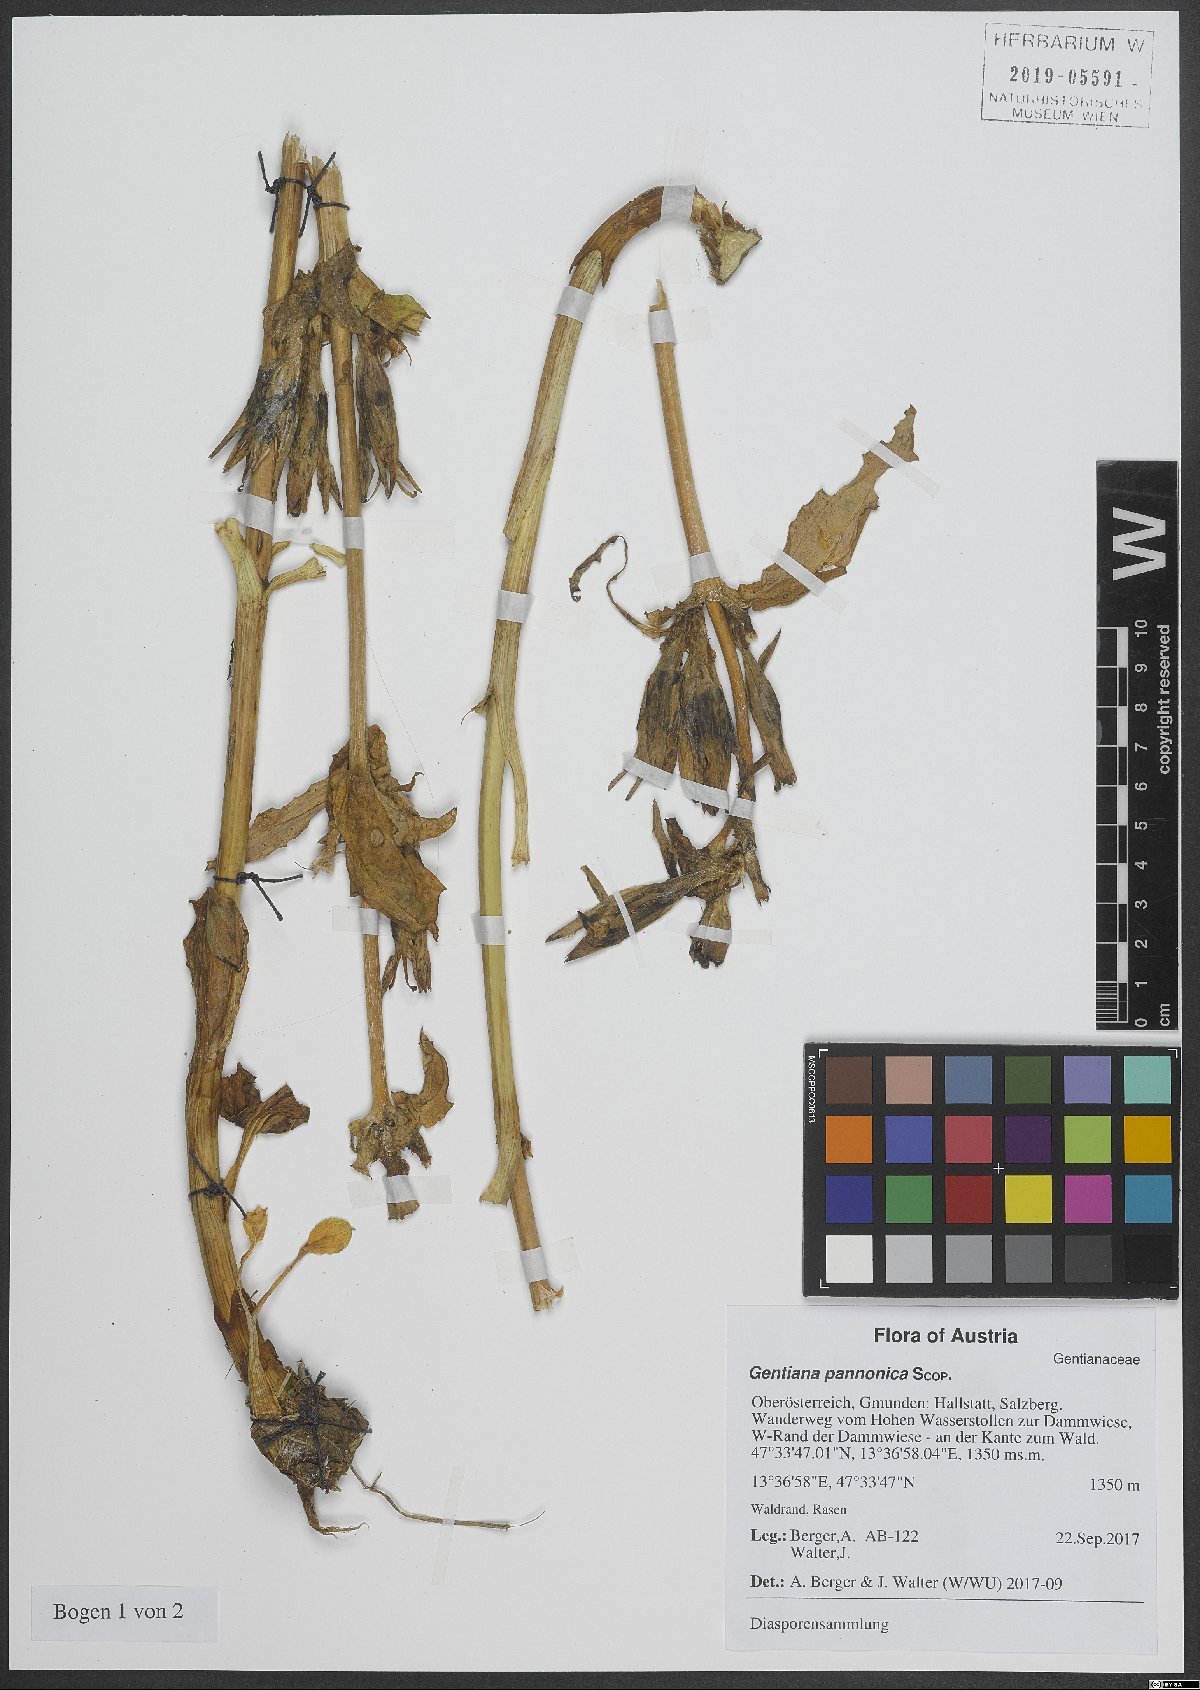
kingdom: Plantae
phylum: Tracheophyta
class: Magnoliopsida
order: Gentianales
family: Gentianaceae
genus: Gentiana
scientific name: Gentiana pannonica
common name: Hungarian gentian
